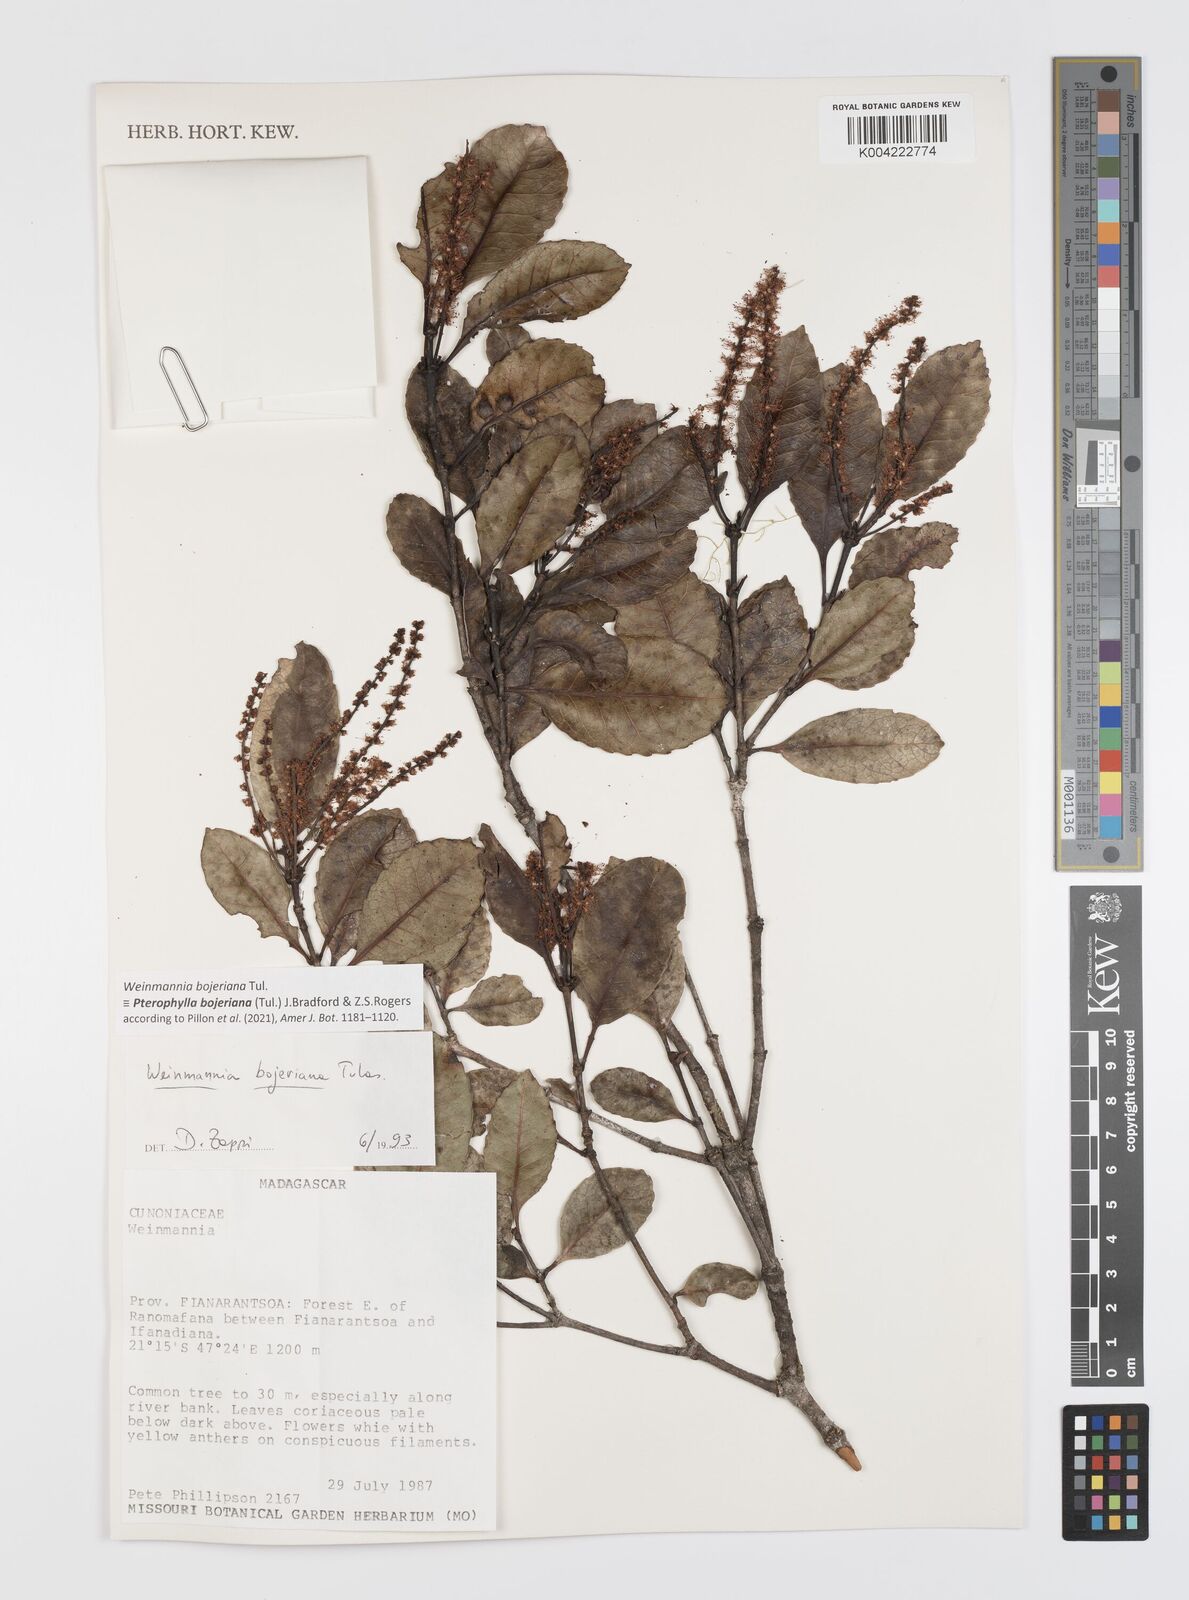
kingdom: Plantae
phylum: Tracheophyta
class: Magnoliopsida
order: Oxalidales
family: Cunoniaceae
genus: Pterophylla
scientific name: Pterophylla
